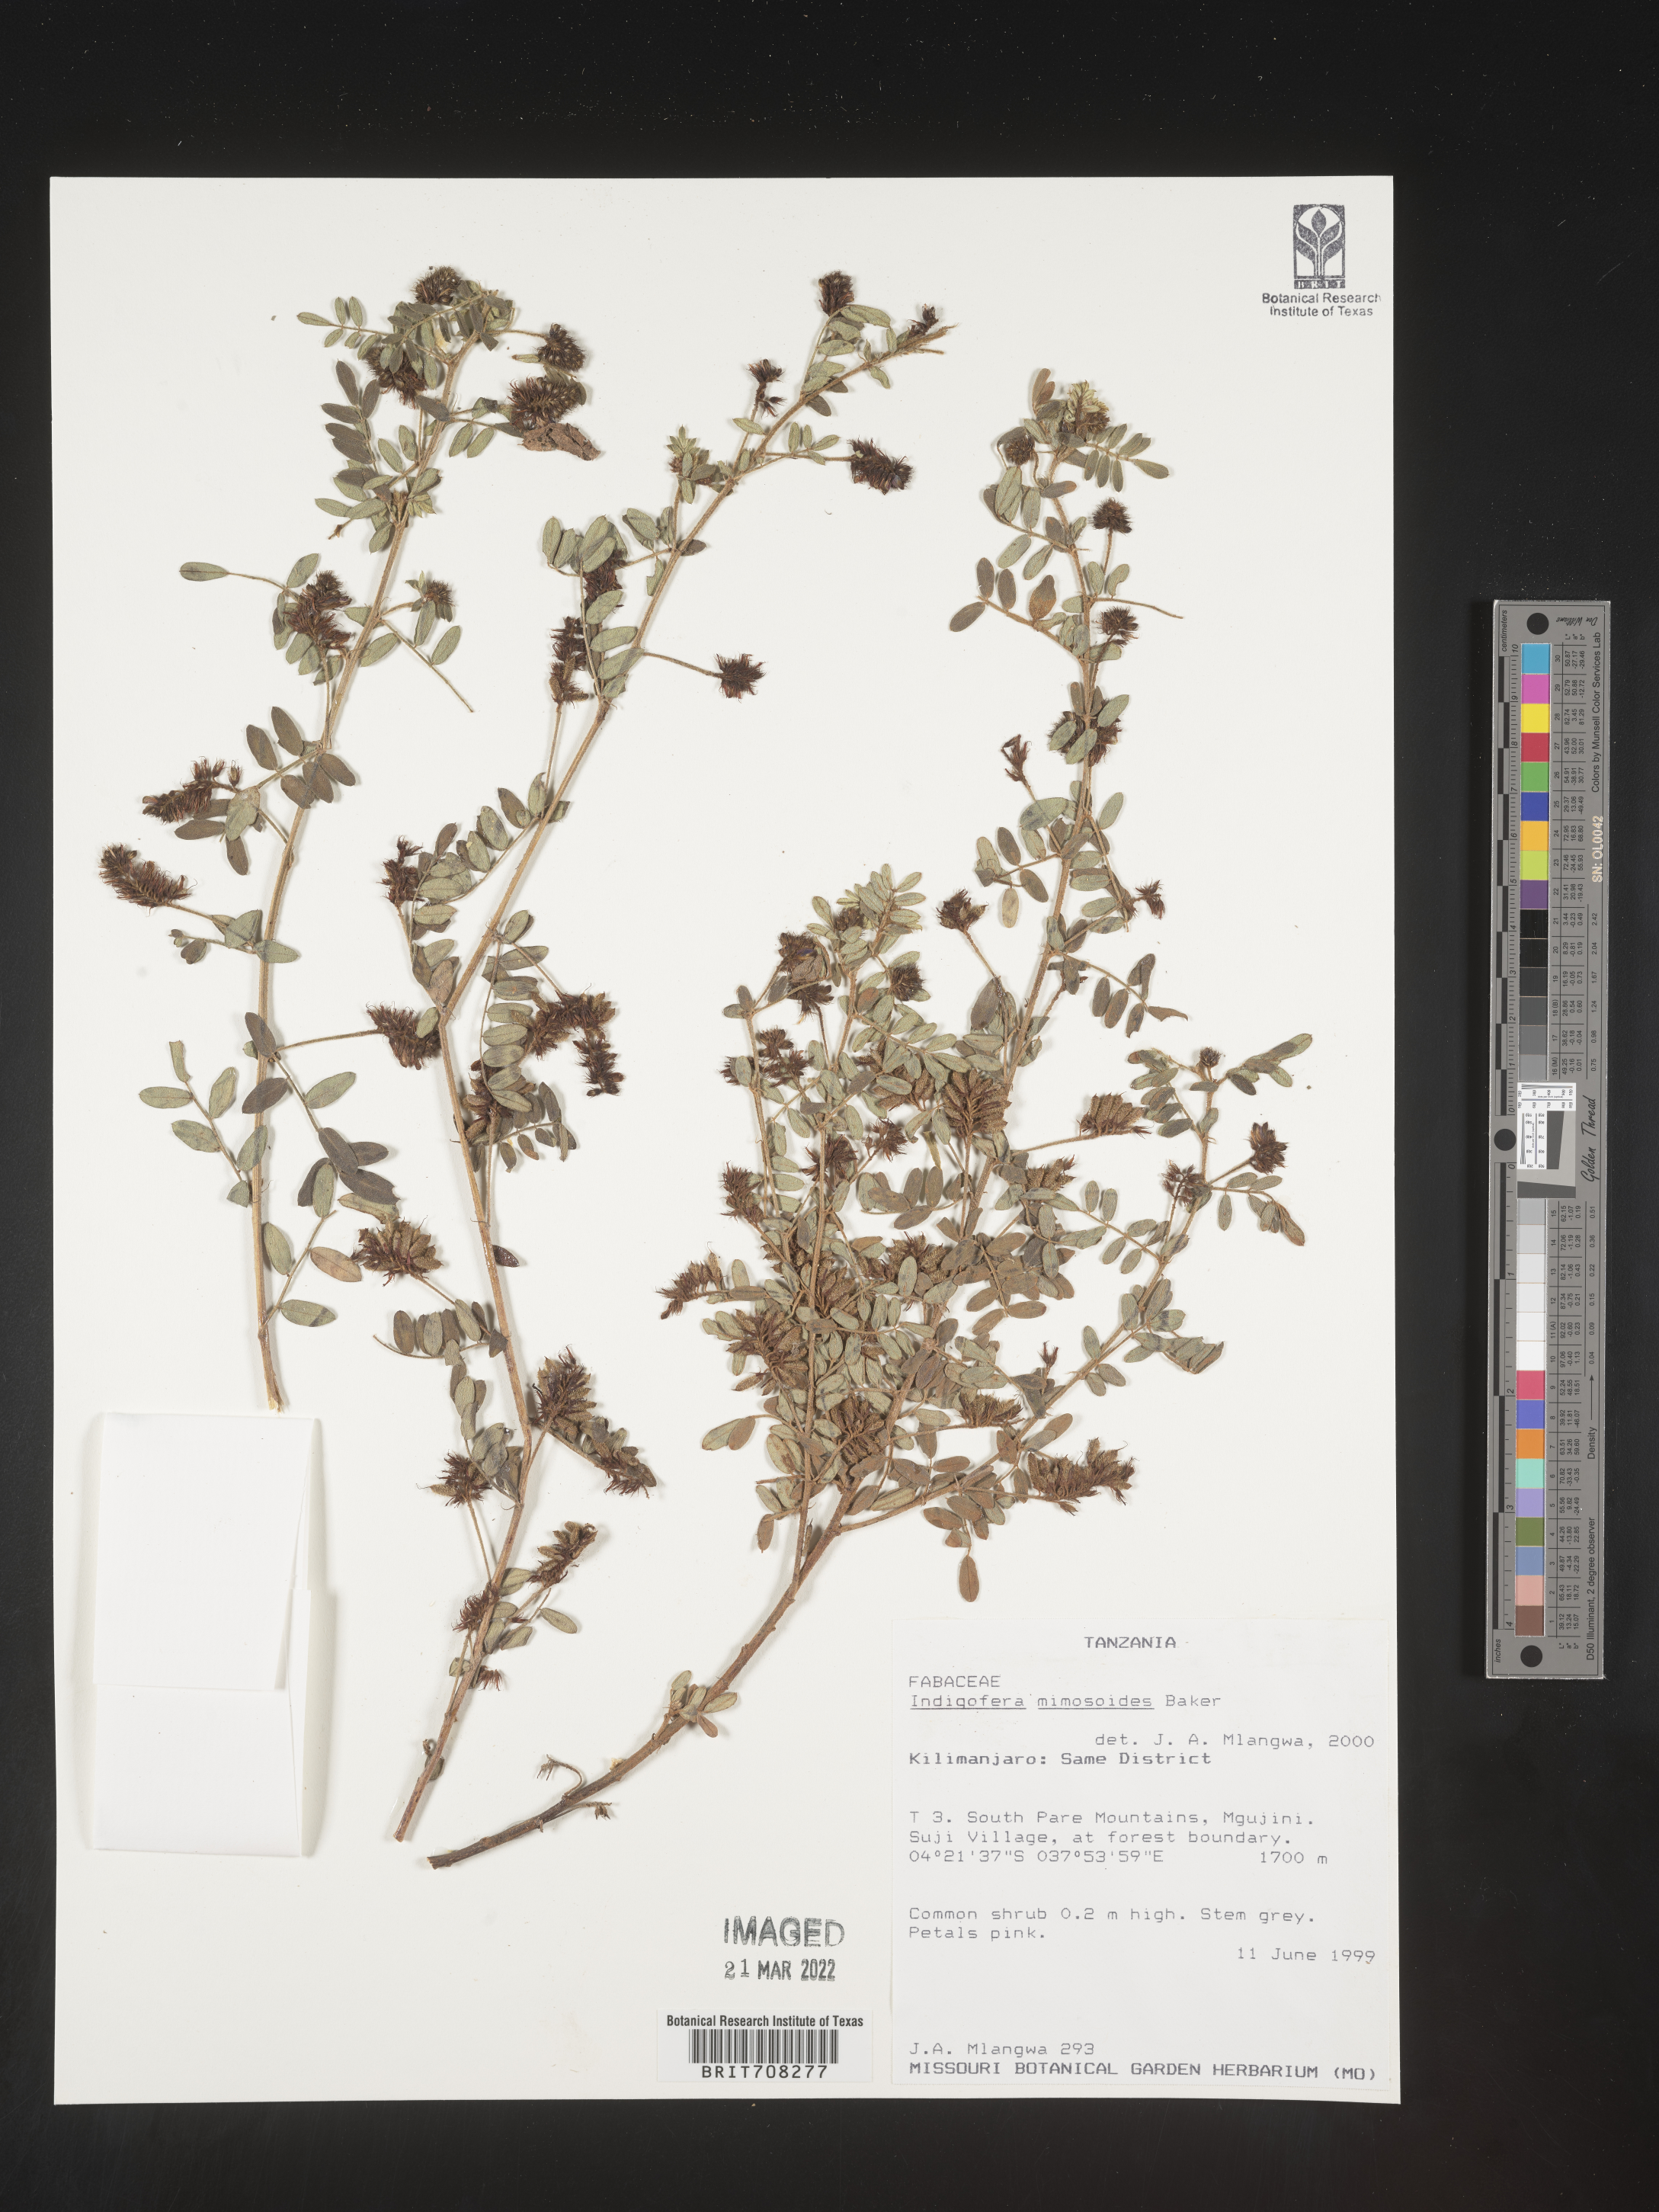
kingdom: Plantae
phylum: Tracheophyta
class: Magnoliopsida
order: Fabales
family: Fabaceae
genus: Indigofera
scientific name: Indigofera
